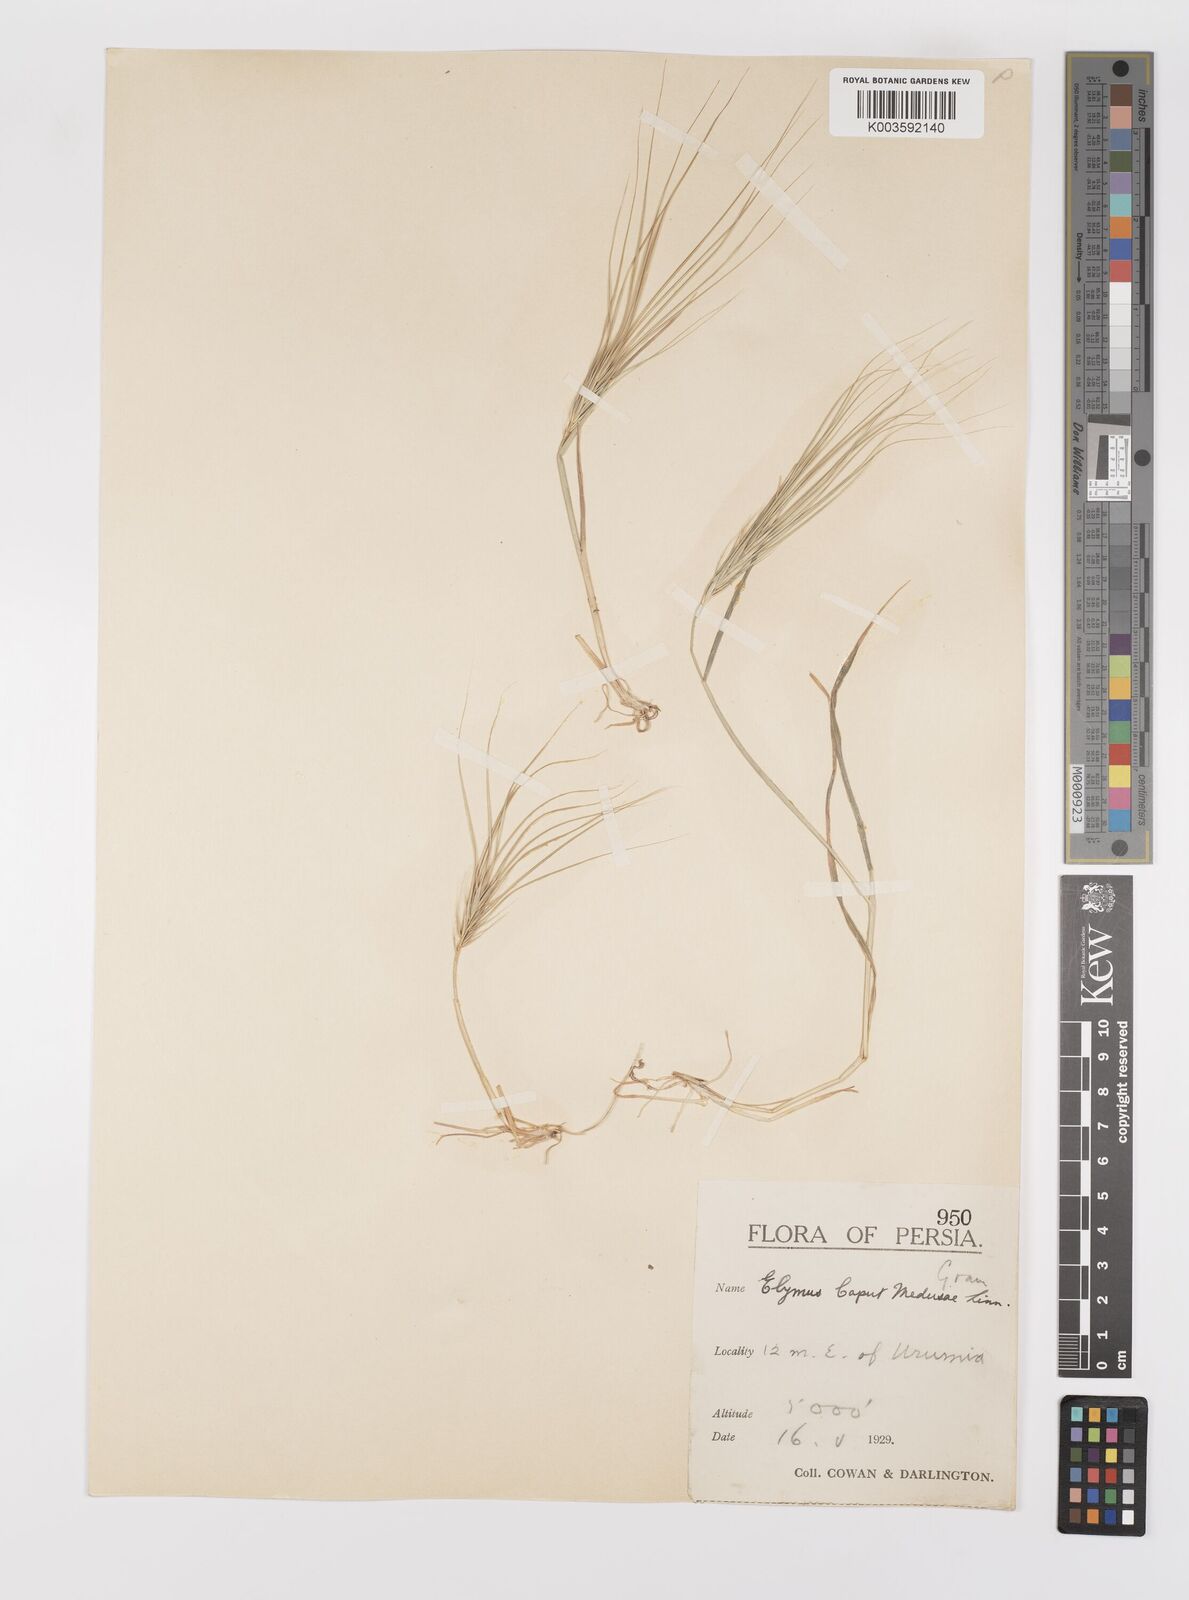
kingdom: Plantae
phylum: Tracheophyta
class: Liliopsida
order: Poales
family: Poaceae
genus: Taeniatherum
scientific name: Taeniatherum caput-medusae
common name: Medusahead
